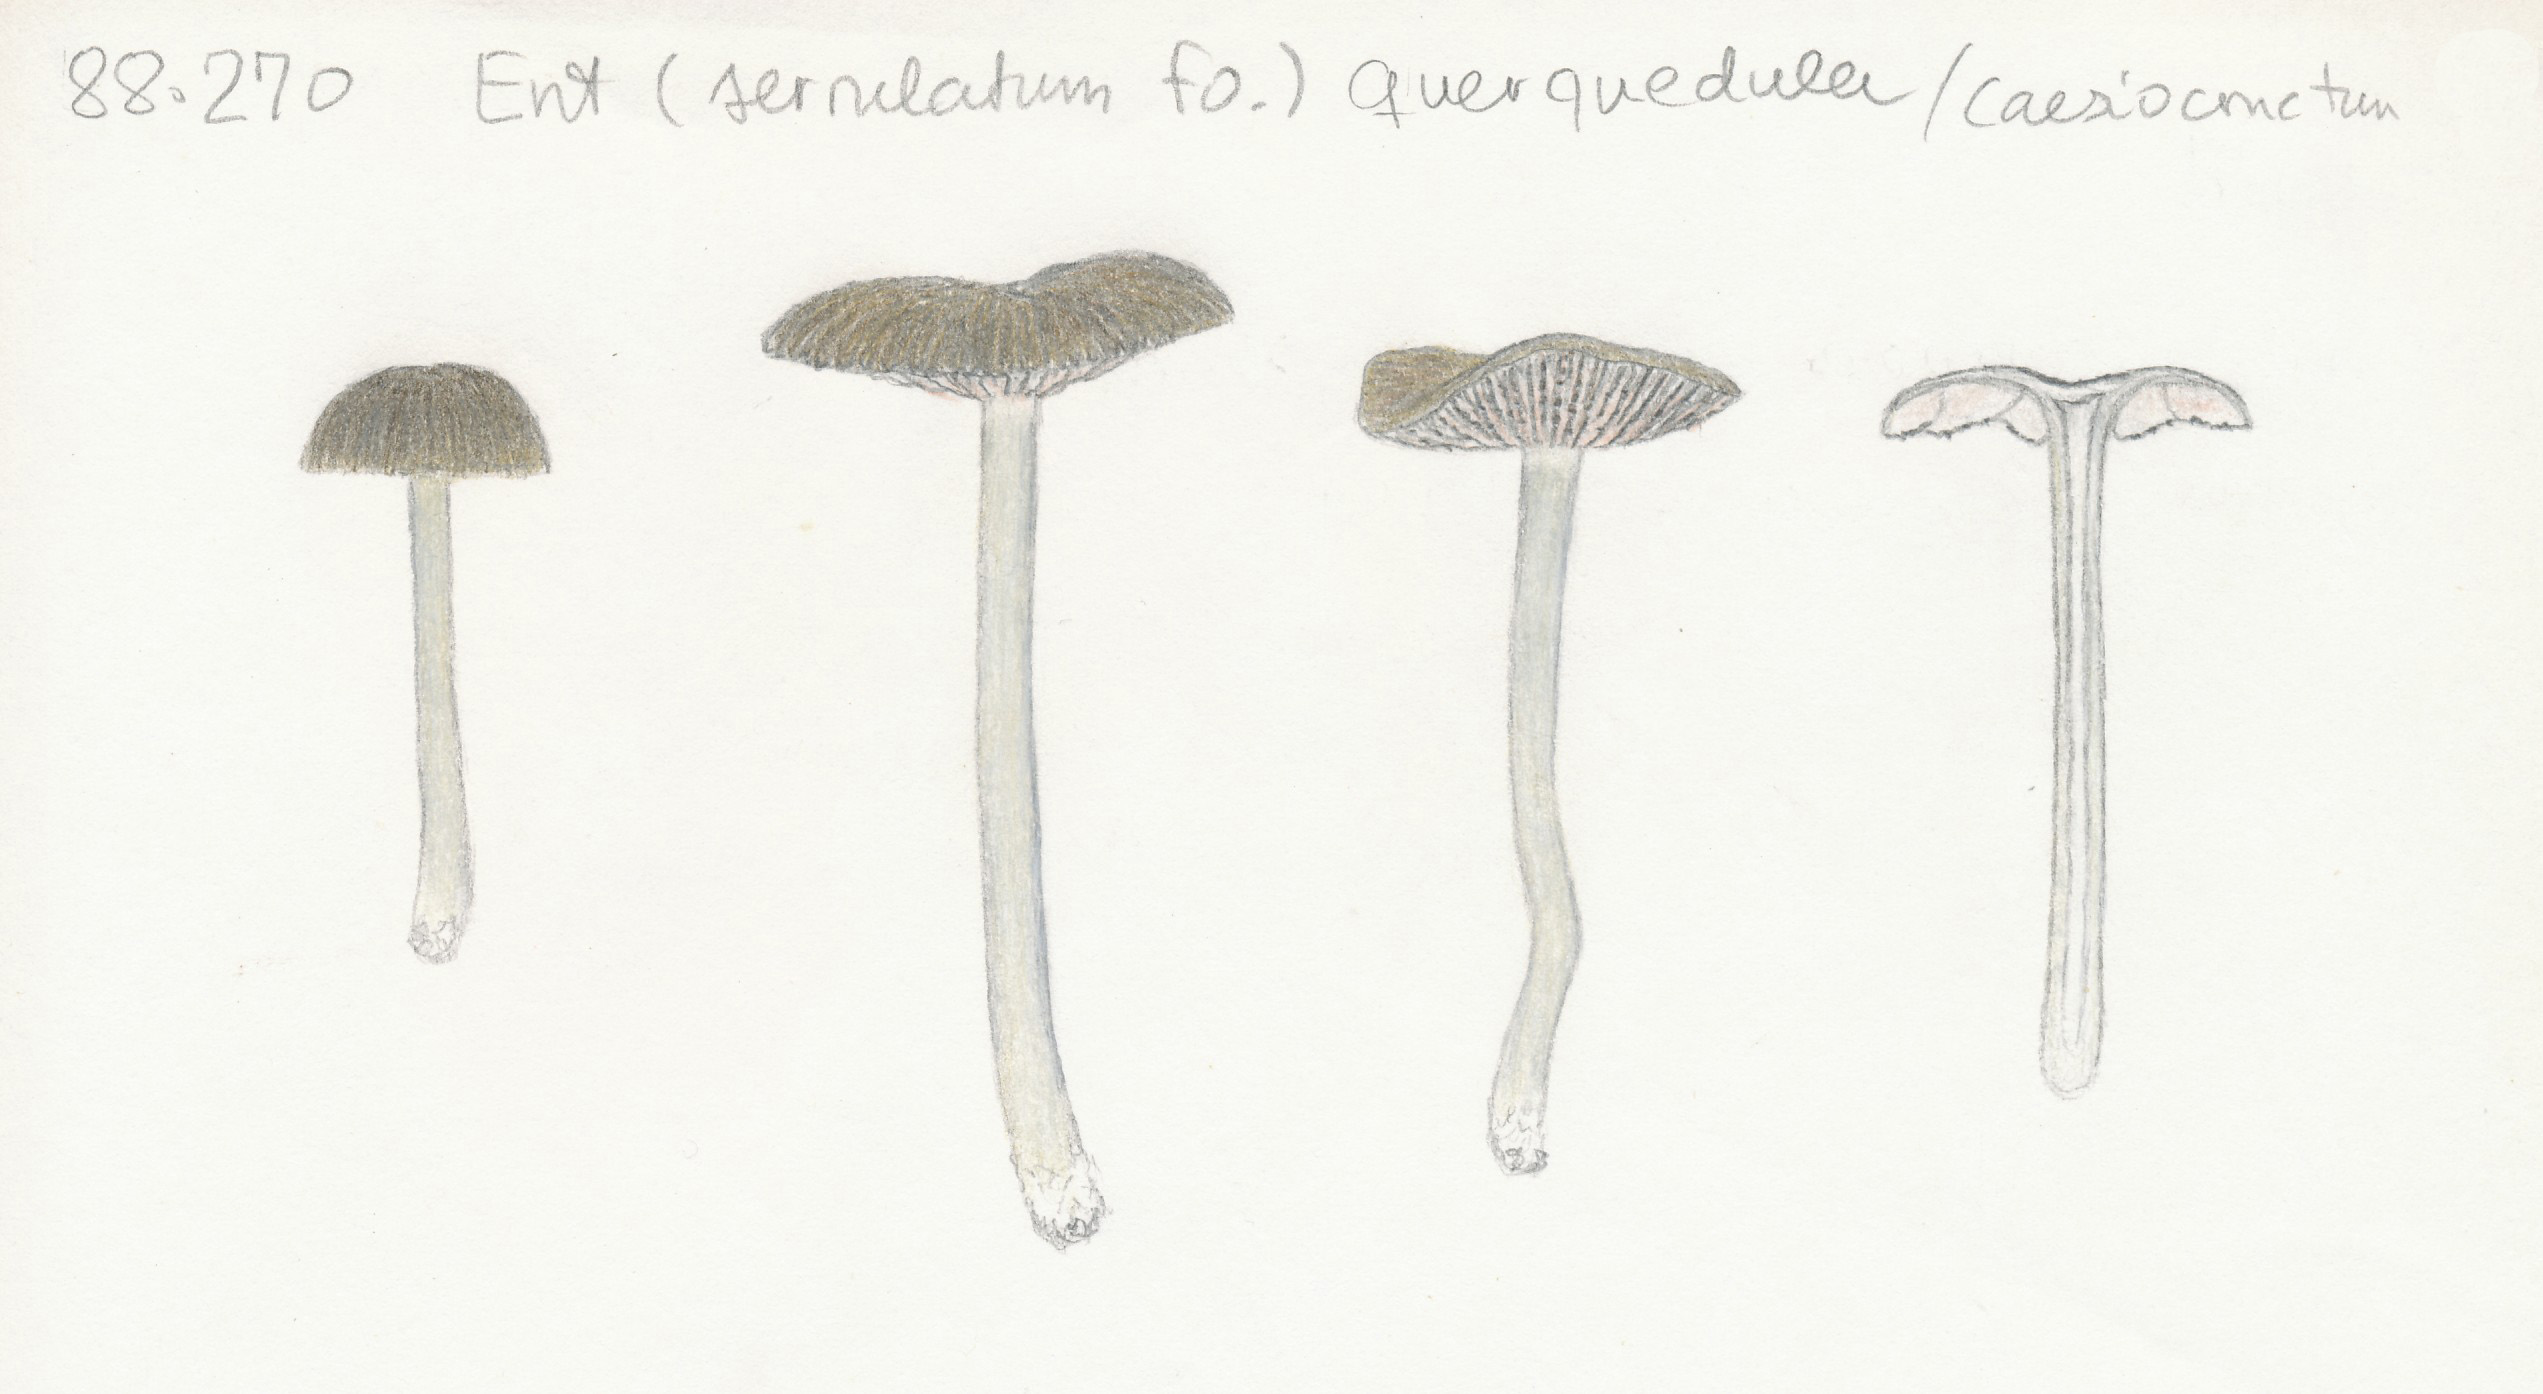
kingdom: Fungi
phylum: Basidiomycota
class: Agaricomycetes
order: Agaricales
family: Entolomataceae
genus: Entoloma
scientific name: Entoloma
